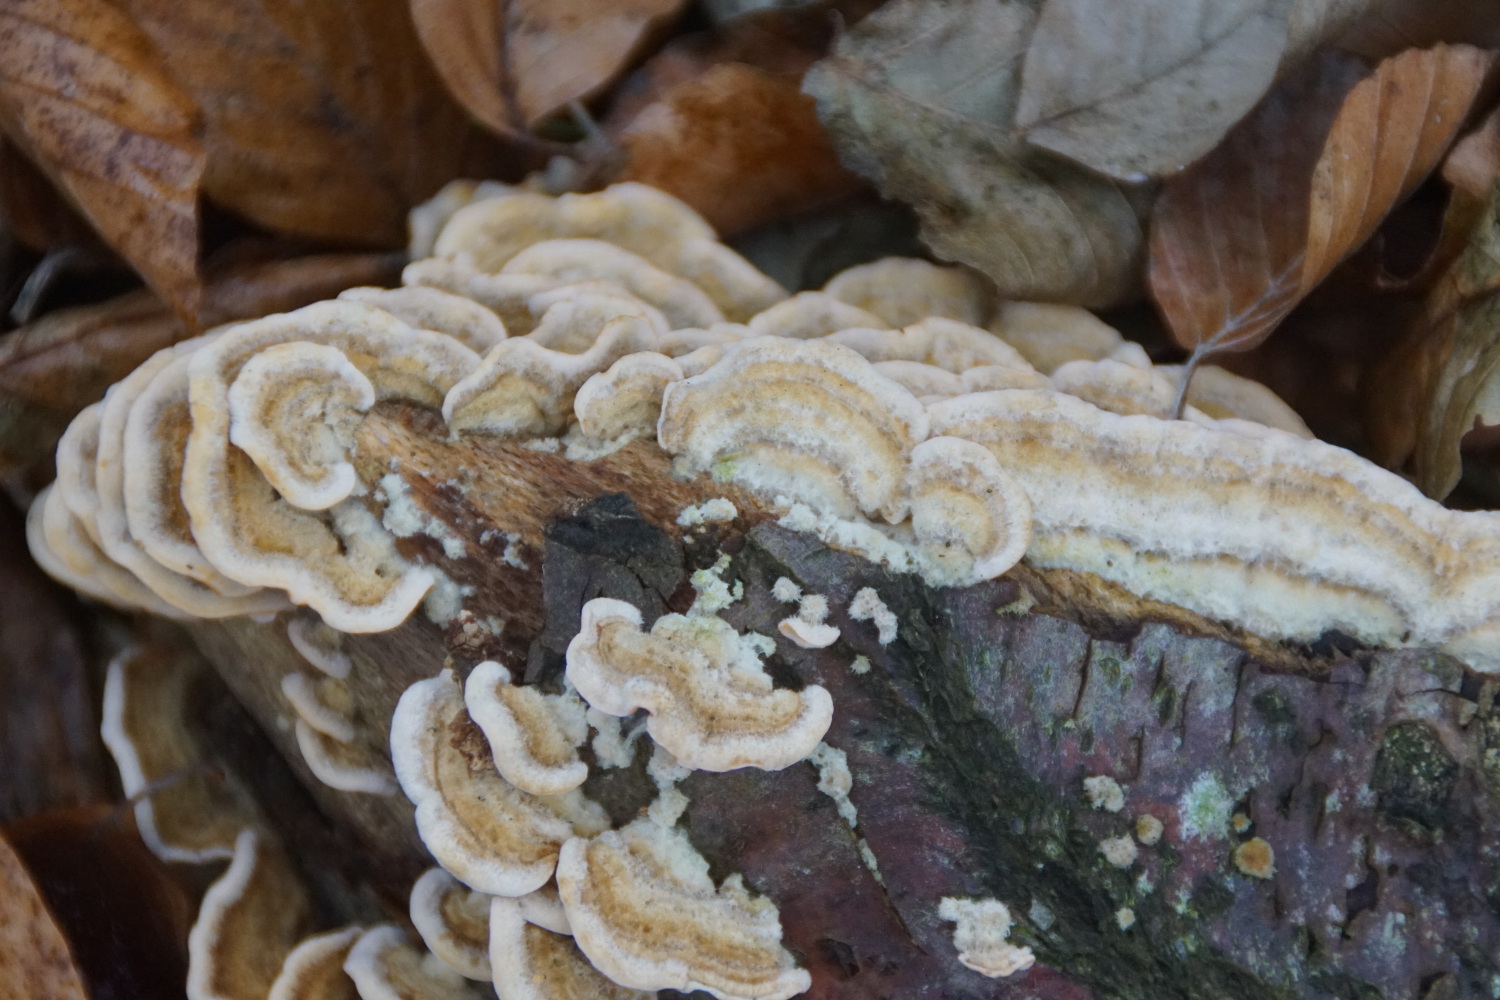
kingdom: Fungi
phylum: Basidiomycota
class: Agaricomycetes
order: Russulales
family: Stereaceae
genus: Stereum
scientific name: Stereum hirsutum
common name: håret lædersvamp
